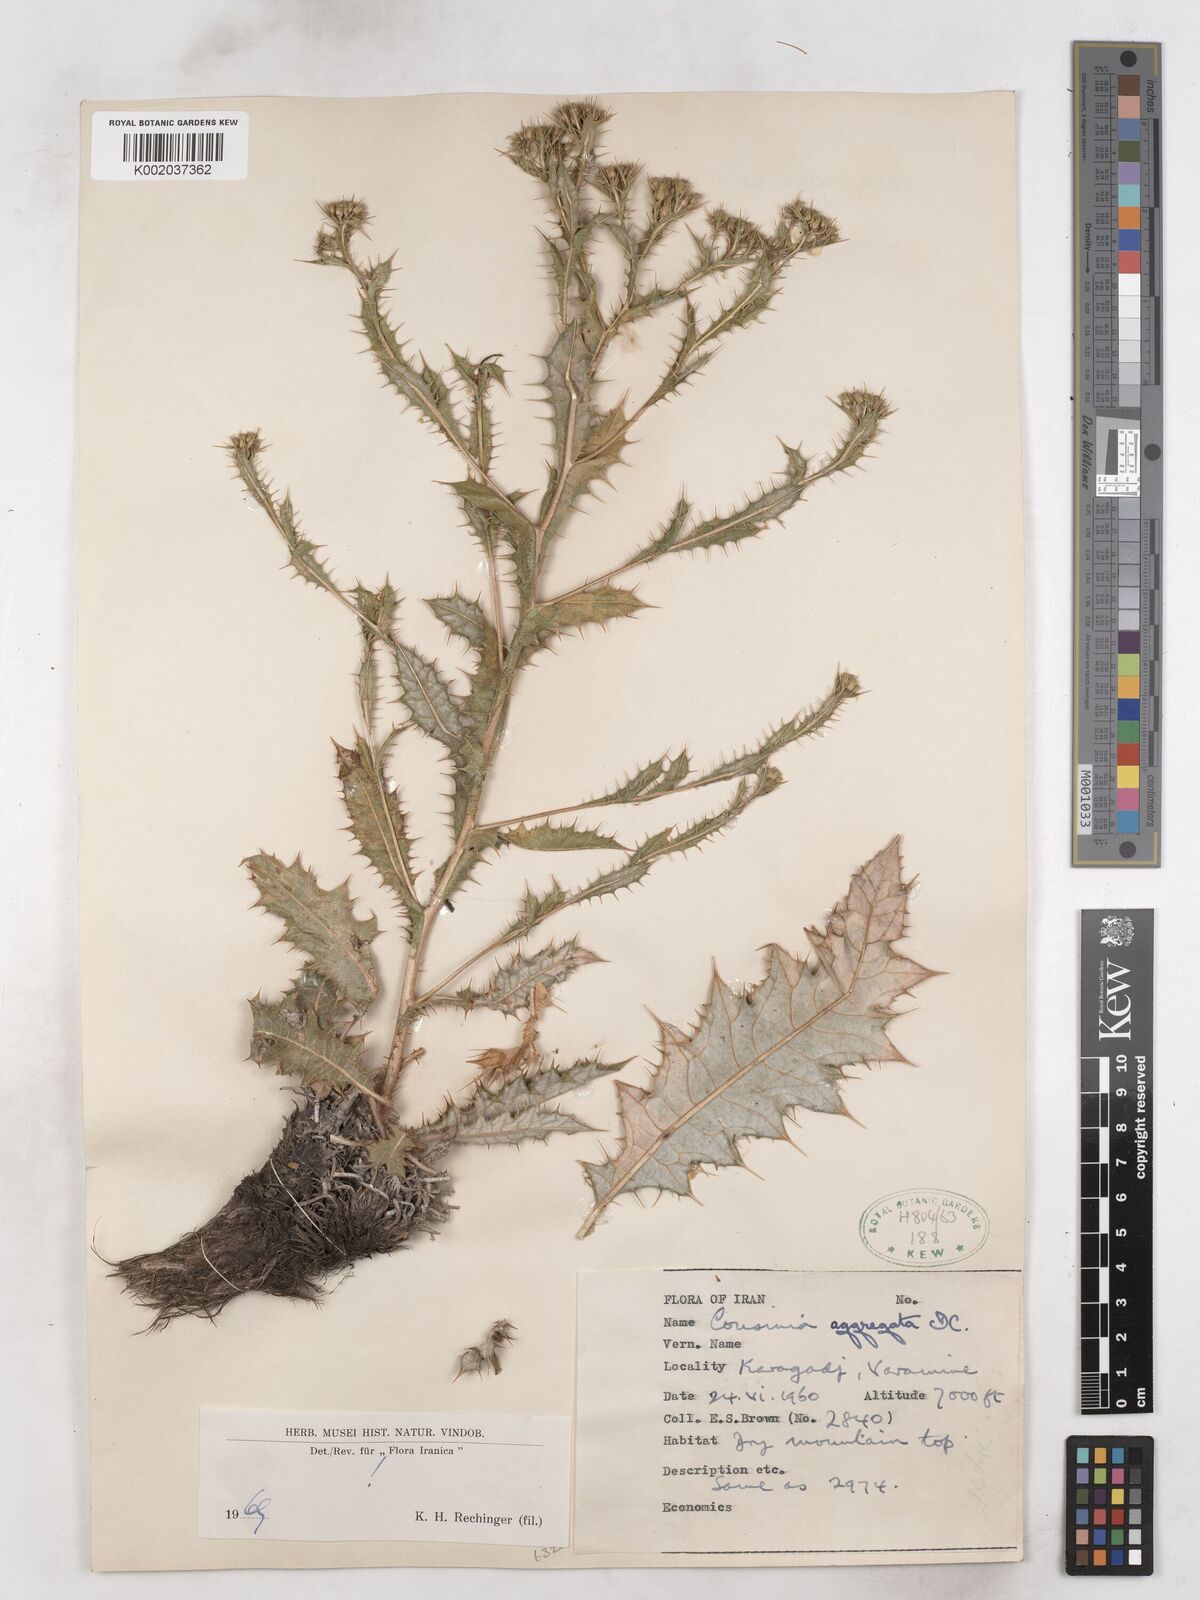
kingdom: Plantae
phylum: Tracheophyta
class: Magnoliopsida
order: Asterales
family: Asteraceae
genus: Cousinia
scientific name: Cousinia aggregata
